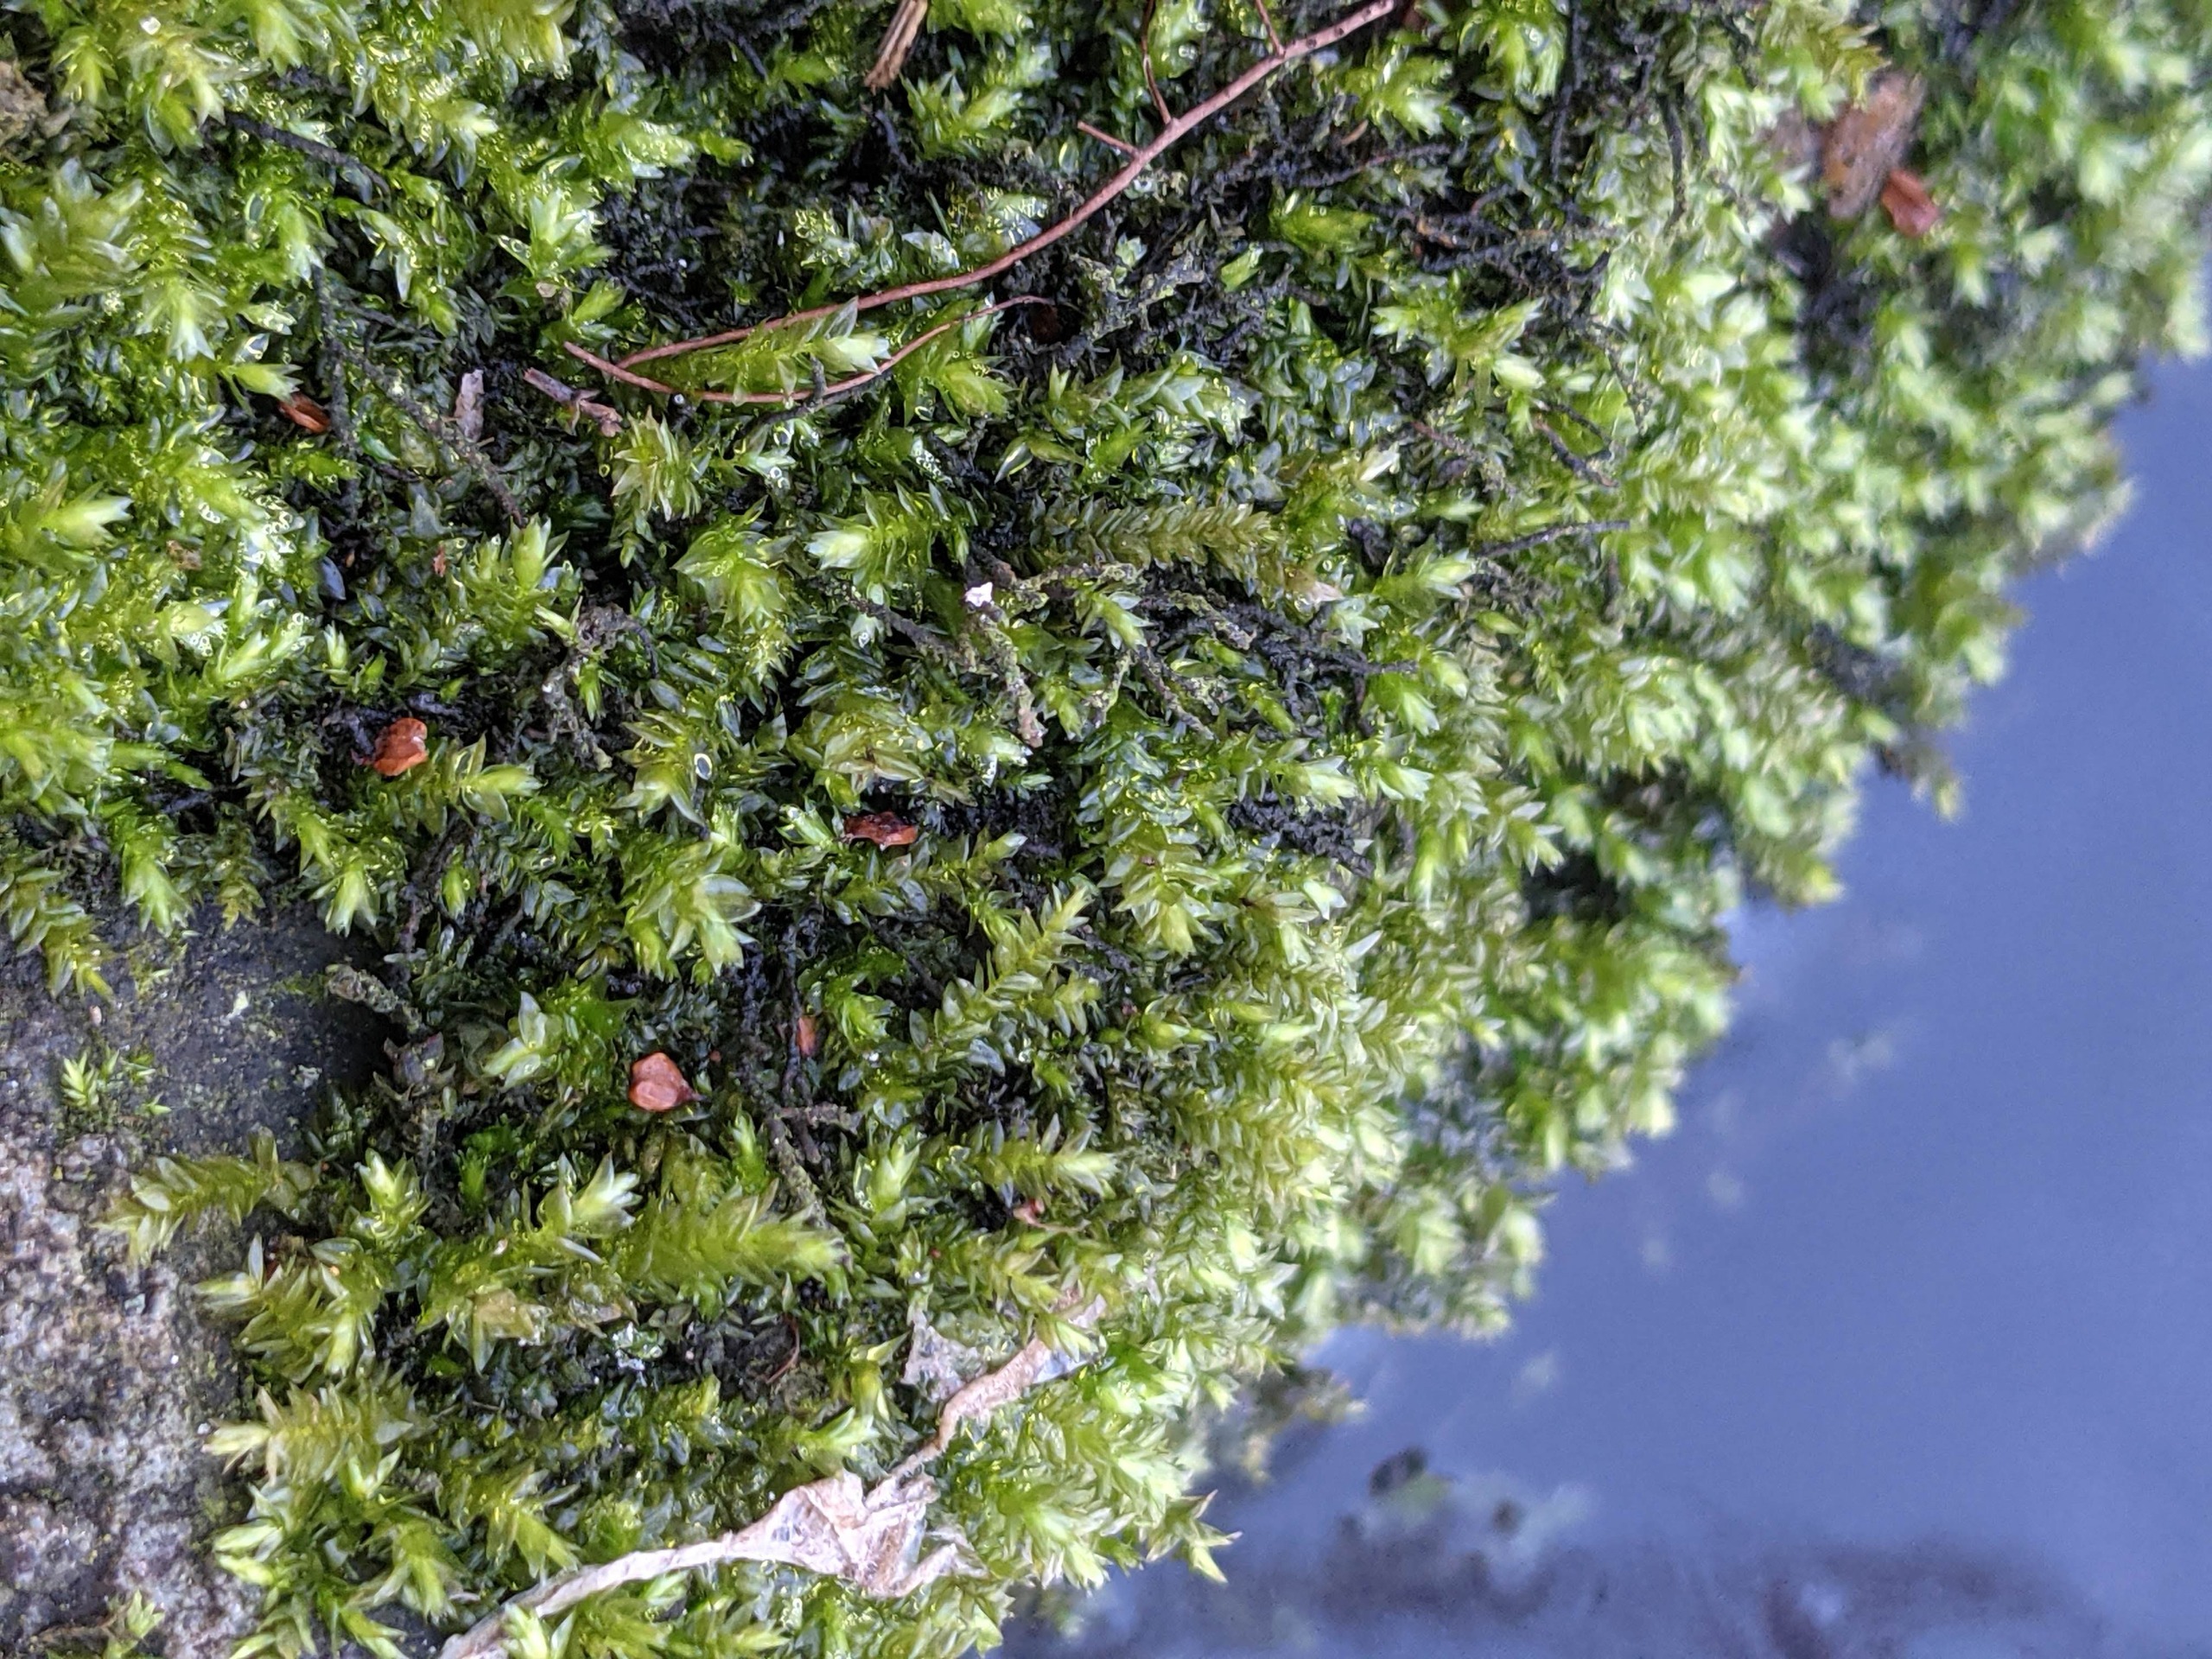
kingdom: Plantae
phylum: Bryophyta
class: Bryopsida
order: Hypnales
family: Brachytheciaceae
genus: Rhynchostegium
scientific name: Rhynchostegium riparioides
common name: Robust strømmos
